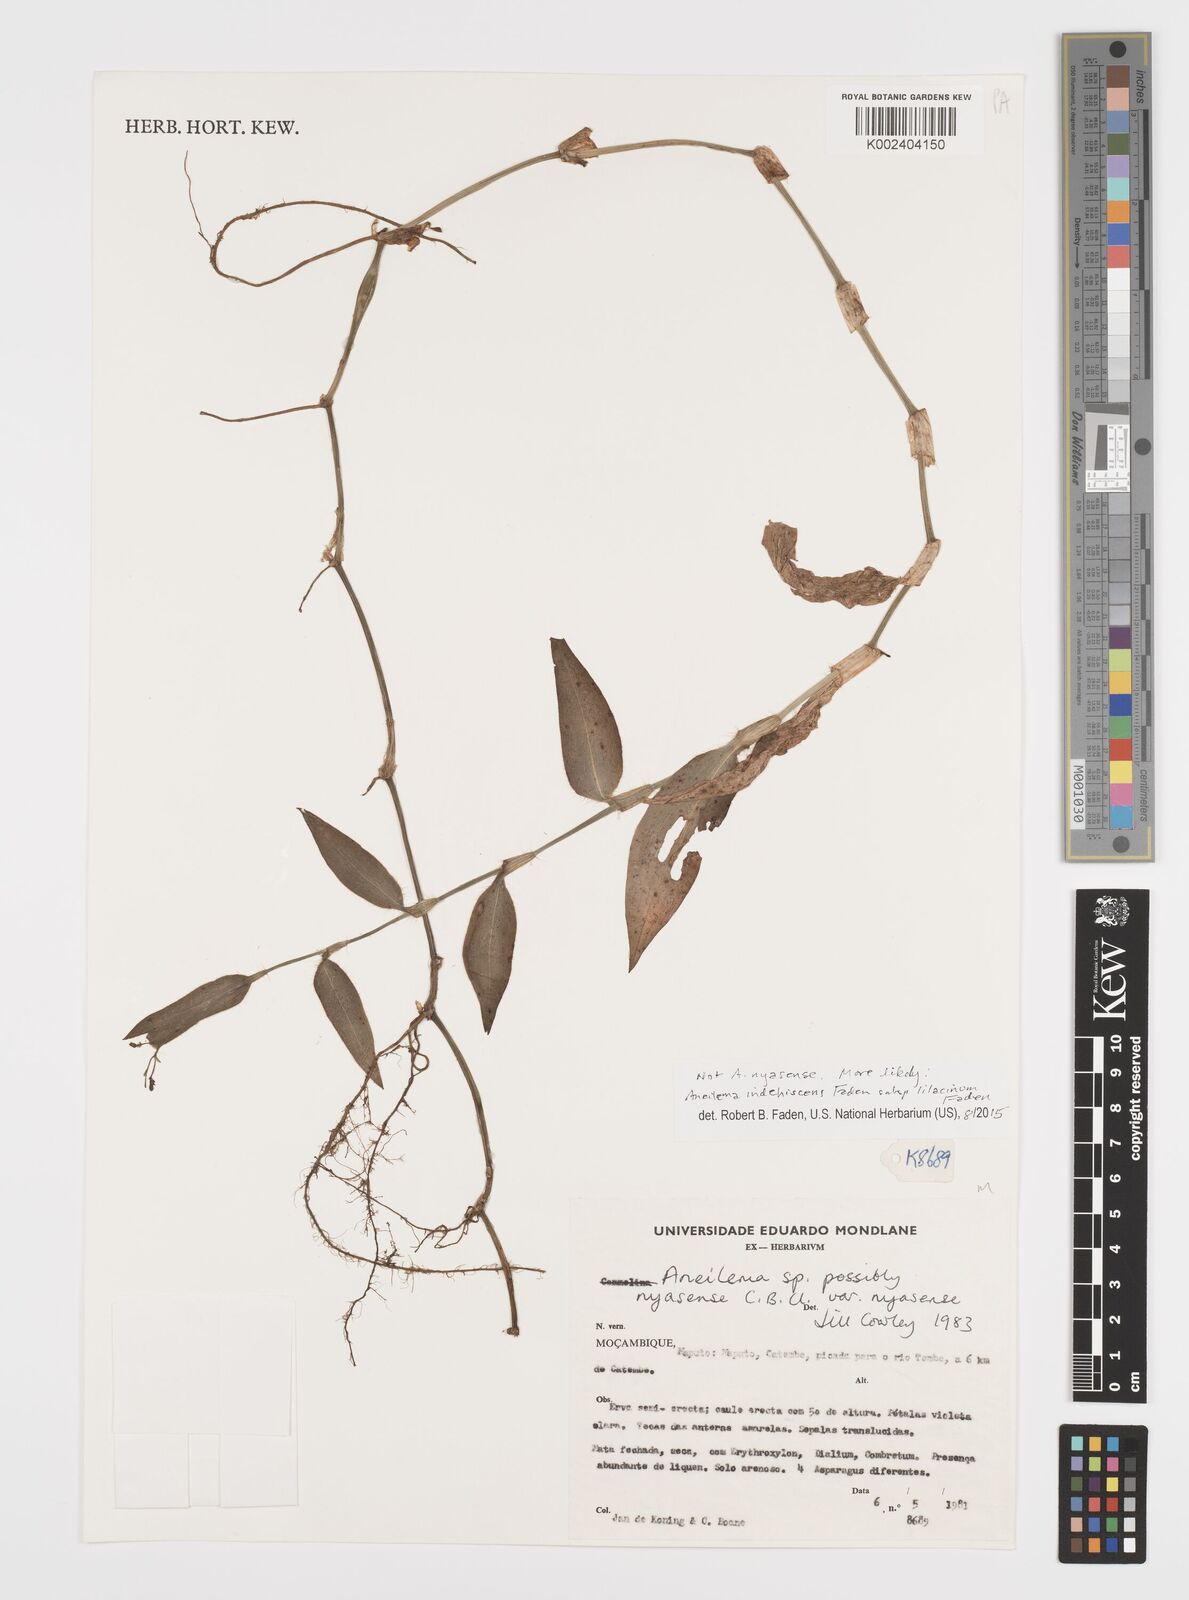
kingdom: Plantae
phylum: Tracheophyta
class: Liliopsida
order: Commelinales
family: Commelinaceae
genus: Aneilema
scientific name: Aneilema indehiscens
